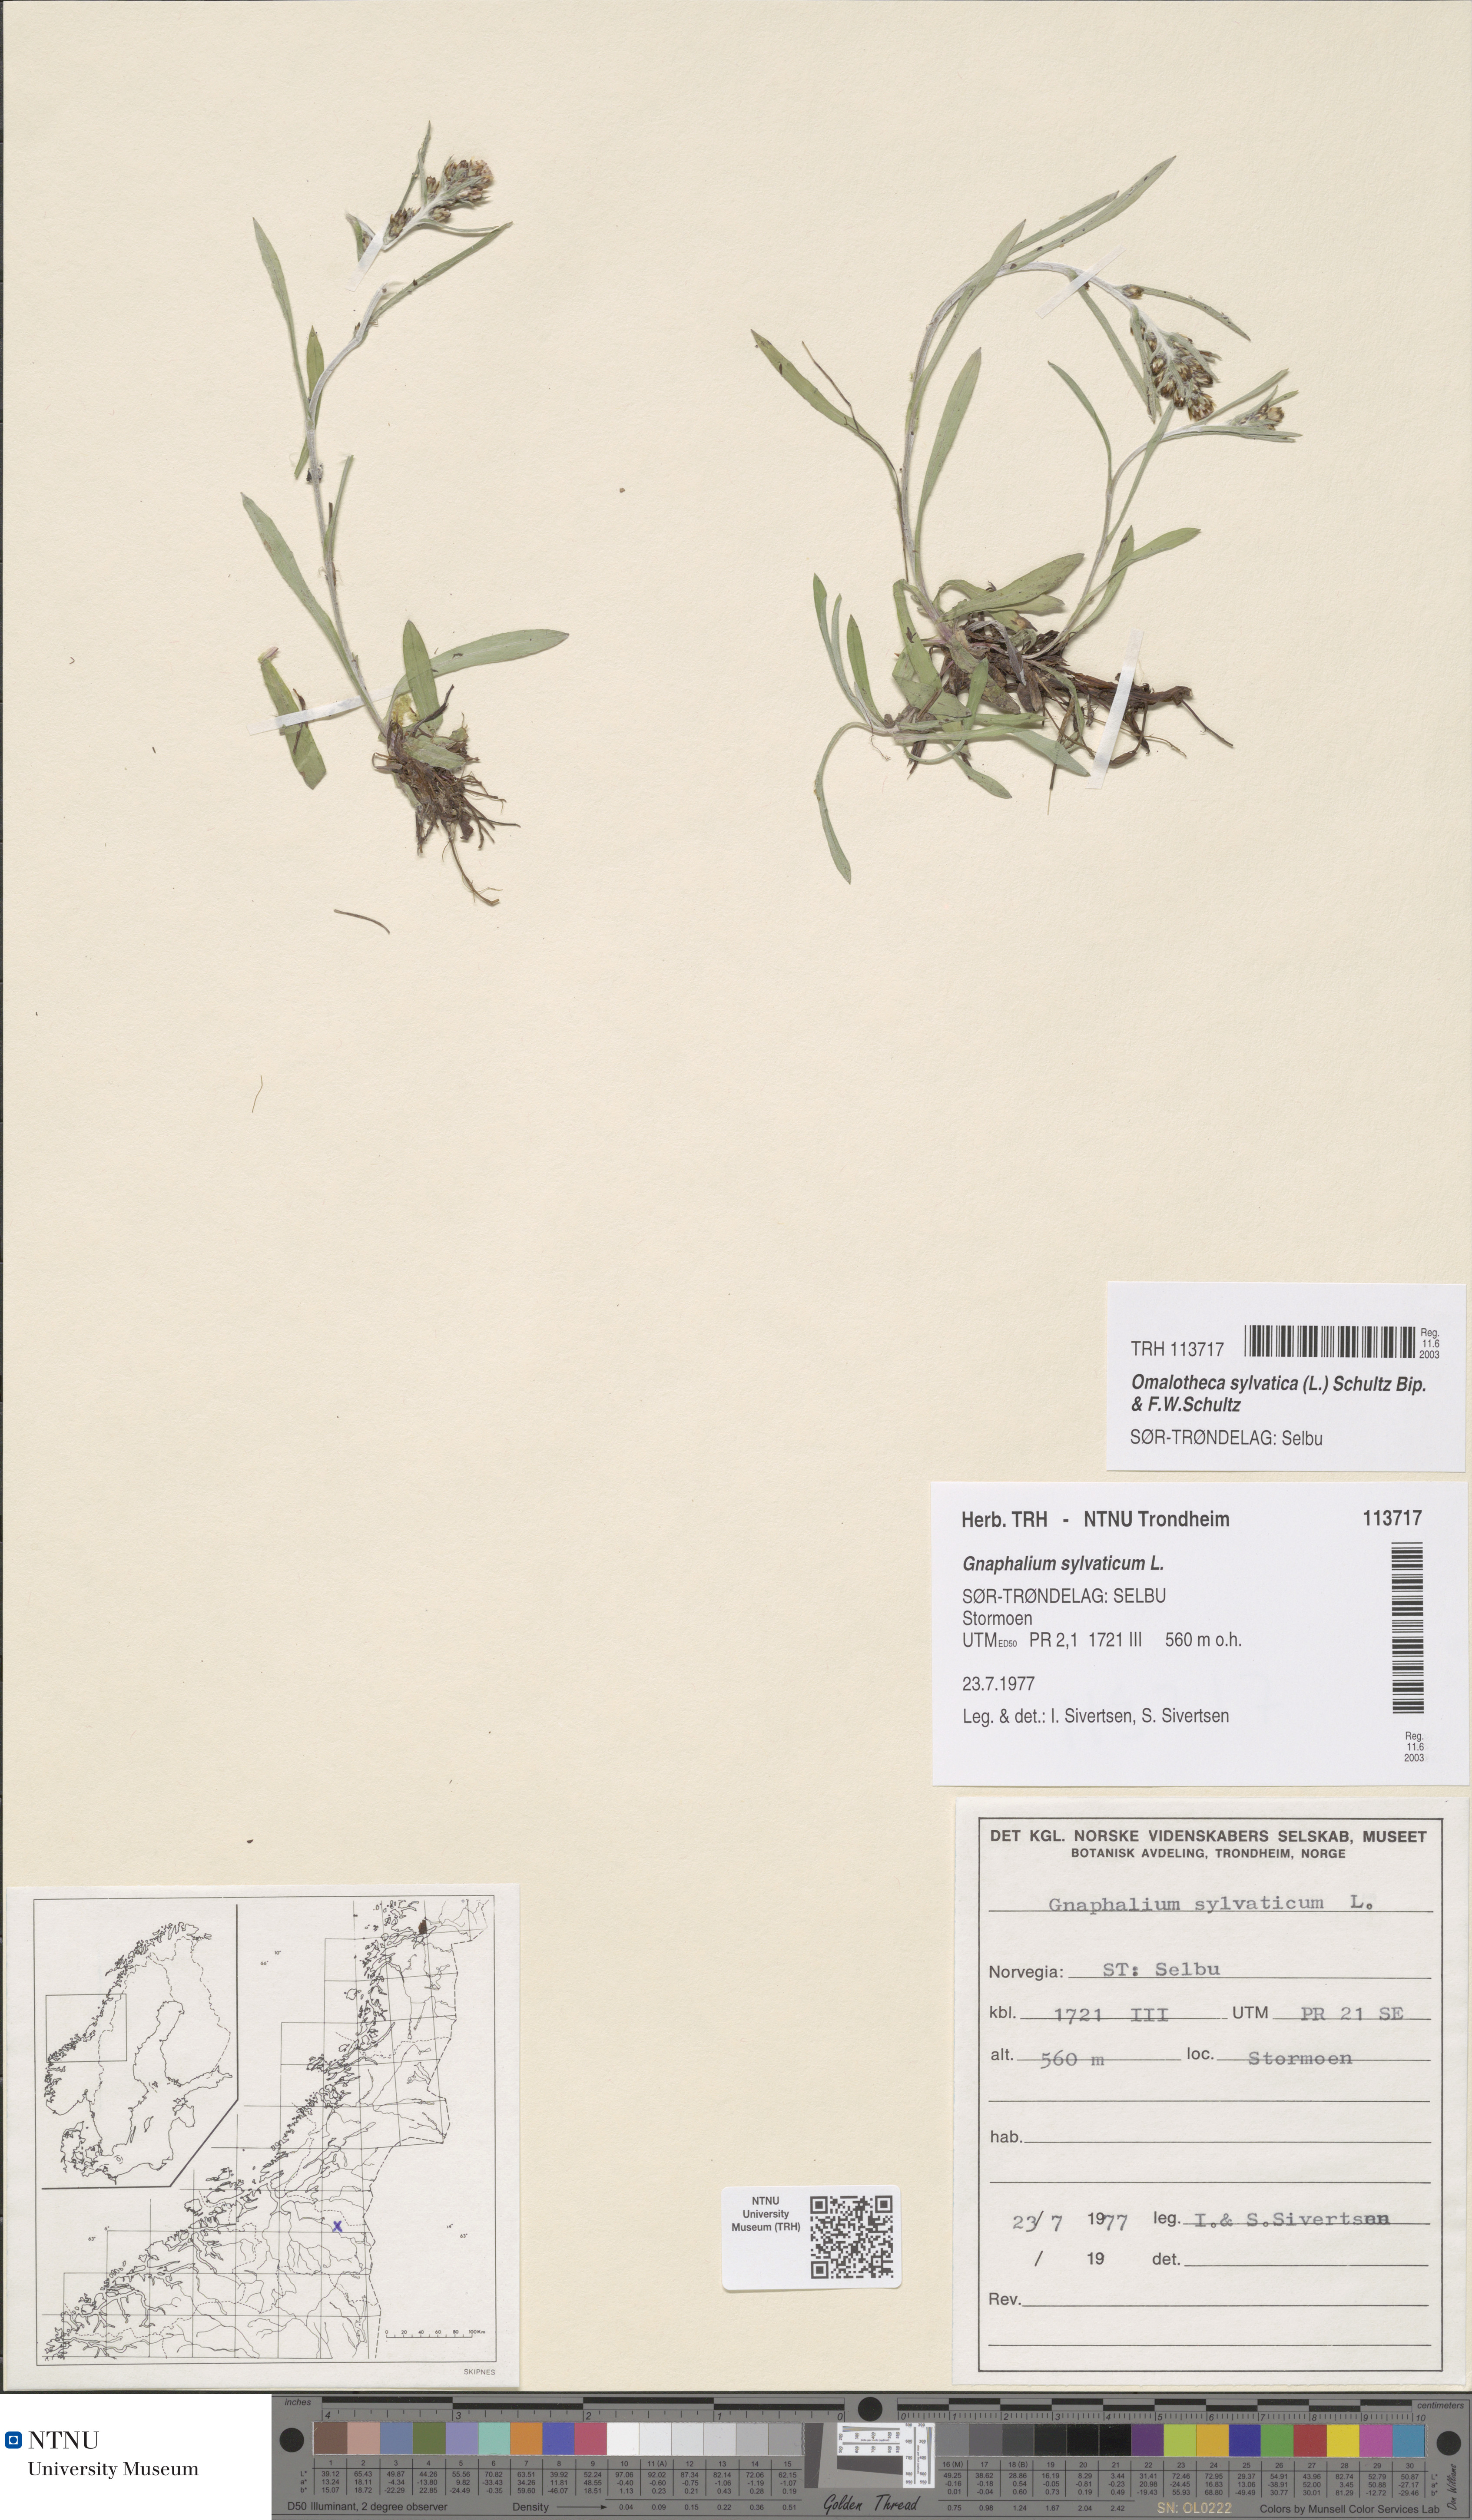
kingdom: Plantae
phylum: Tracheophyta
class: Magnoliopsida
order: Asterales
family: Asteraceae
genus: Omalotheca
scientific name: Omalotheca sylvatica
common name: Heath cudweed
